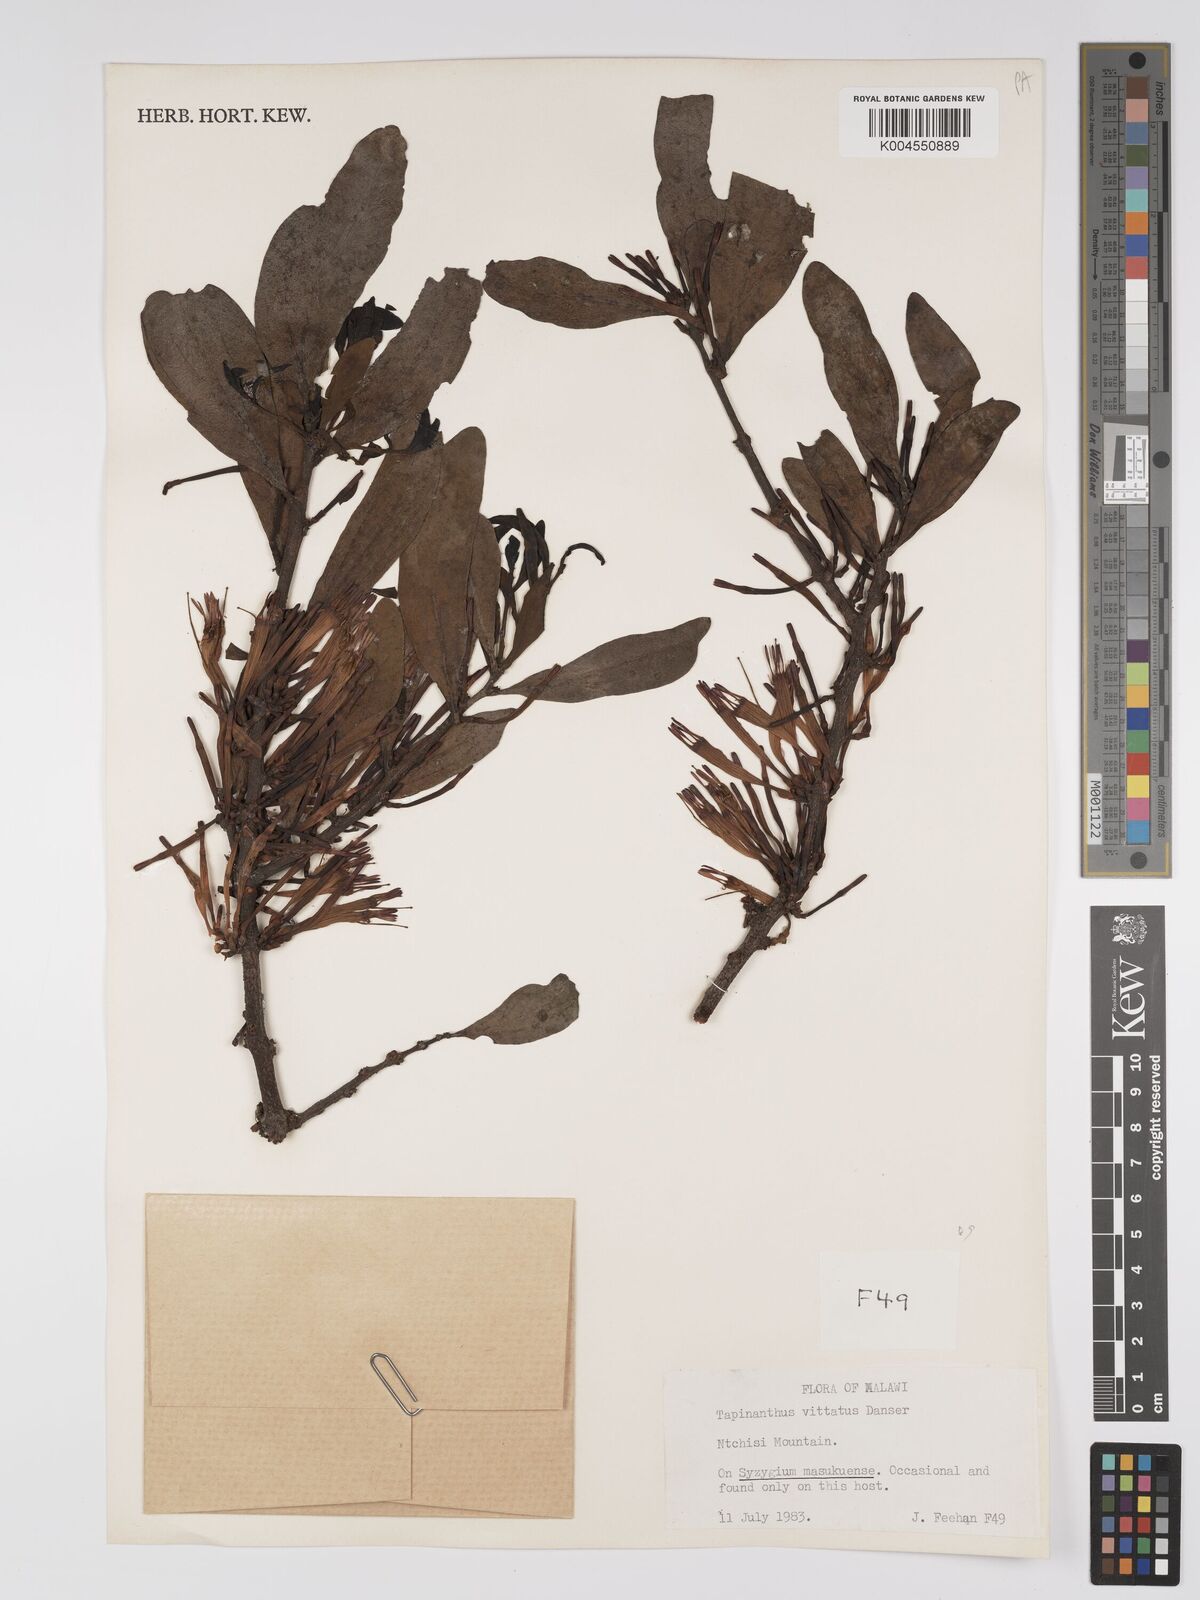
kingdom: Plantae
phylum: Tracheophyta
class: Magnoliopsida
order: Santalales
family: Loranthaceae
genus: Agelanthus
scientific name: Agelanthus zizyphifolius
